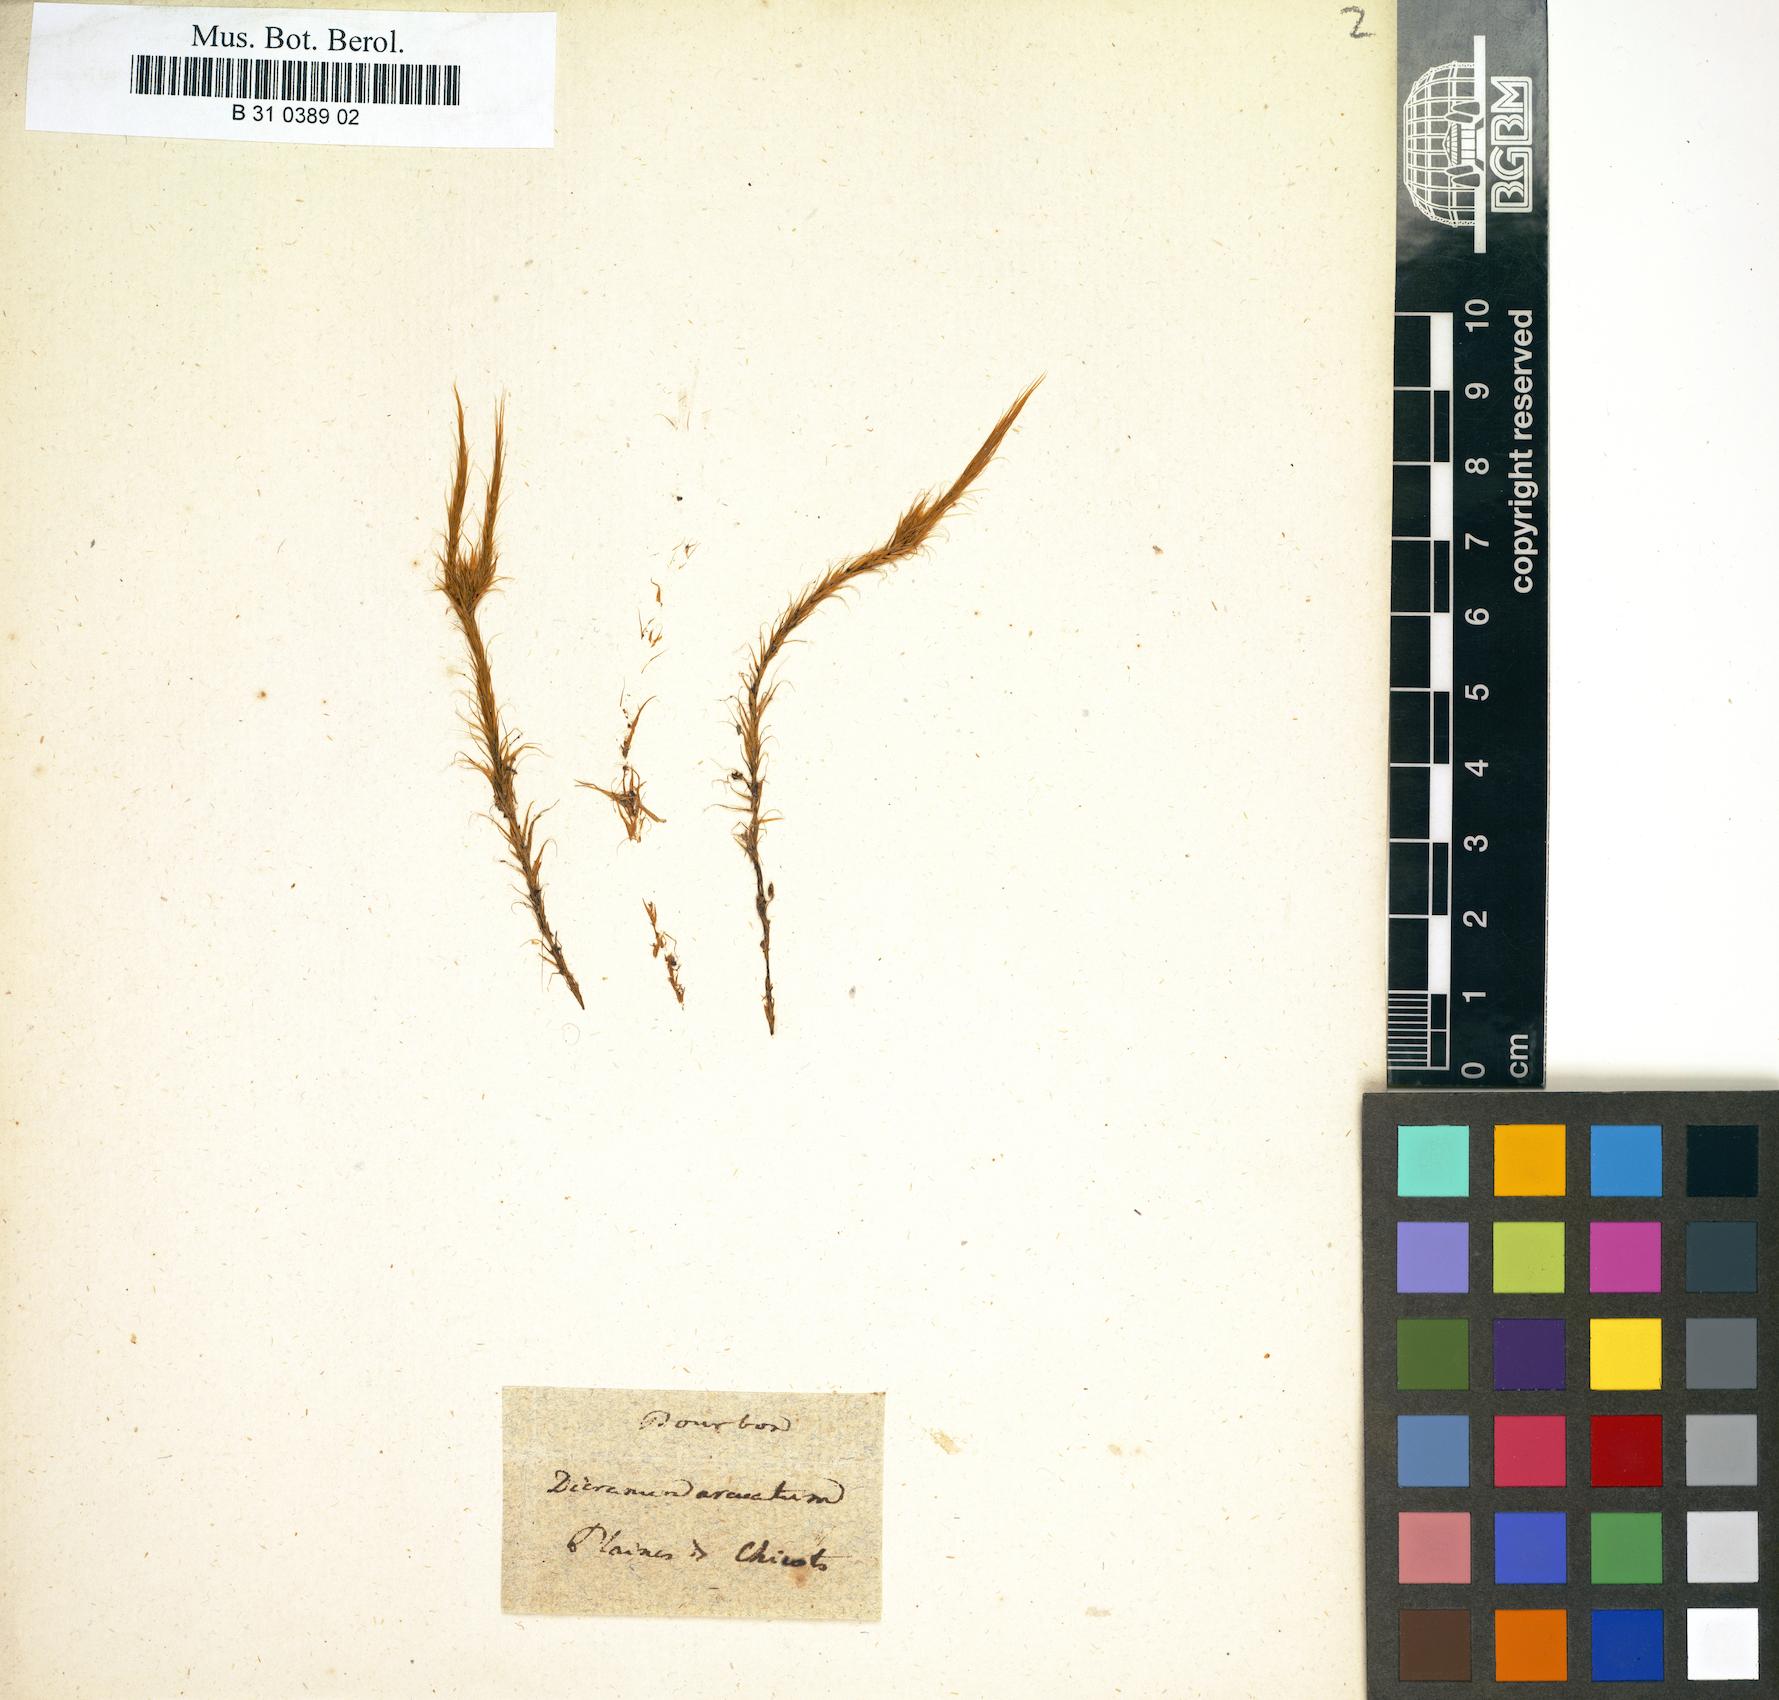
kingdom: Plantae
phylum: Bryophyta
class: Bryopsida
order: Dicranales
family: Dicranaceae
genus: Dicranoloma
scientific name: Dicranoloma dicarpon
